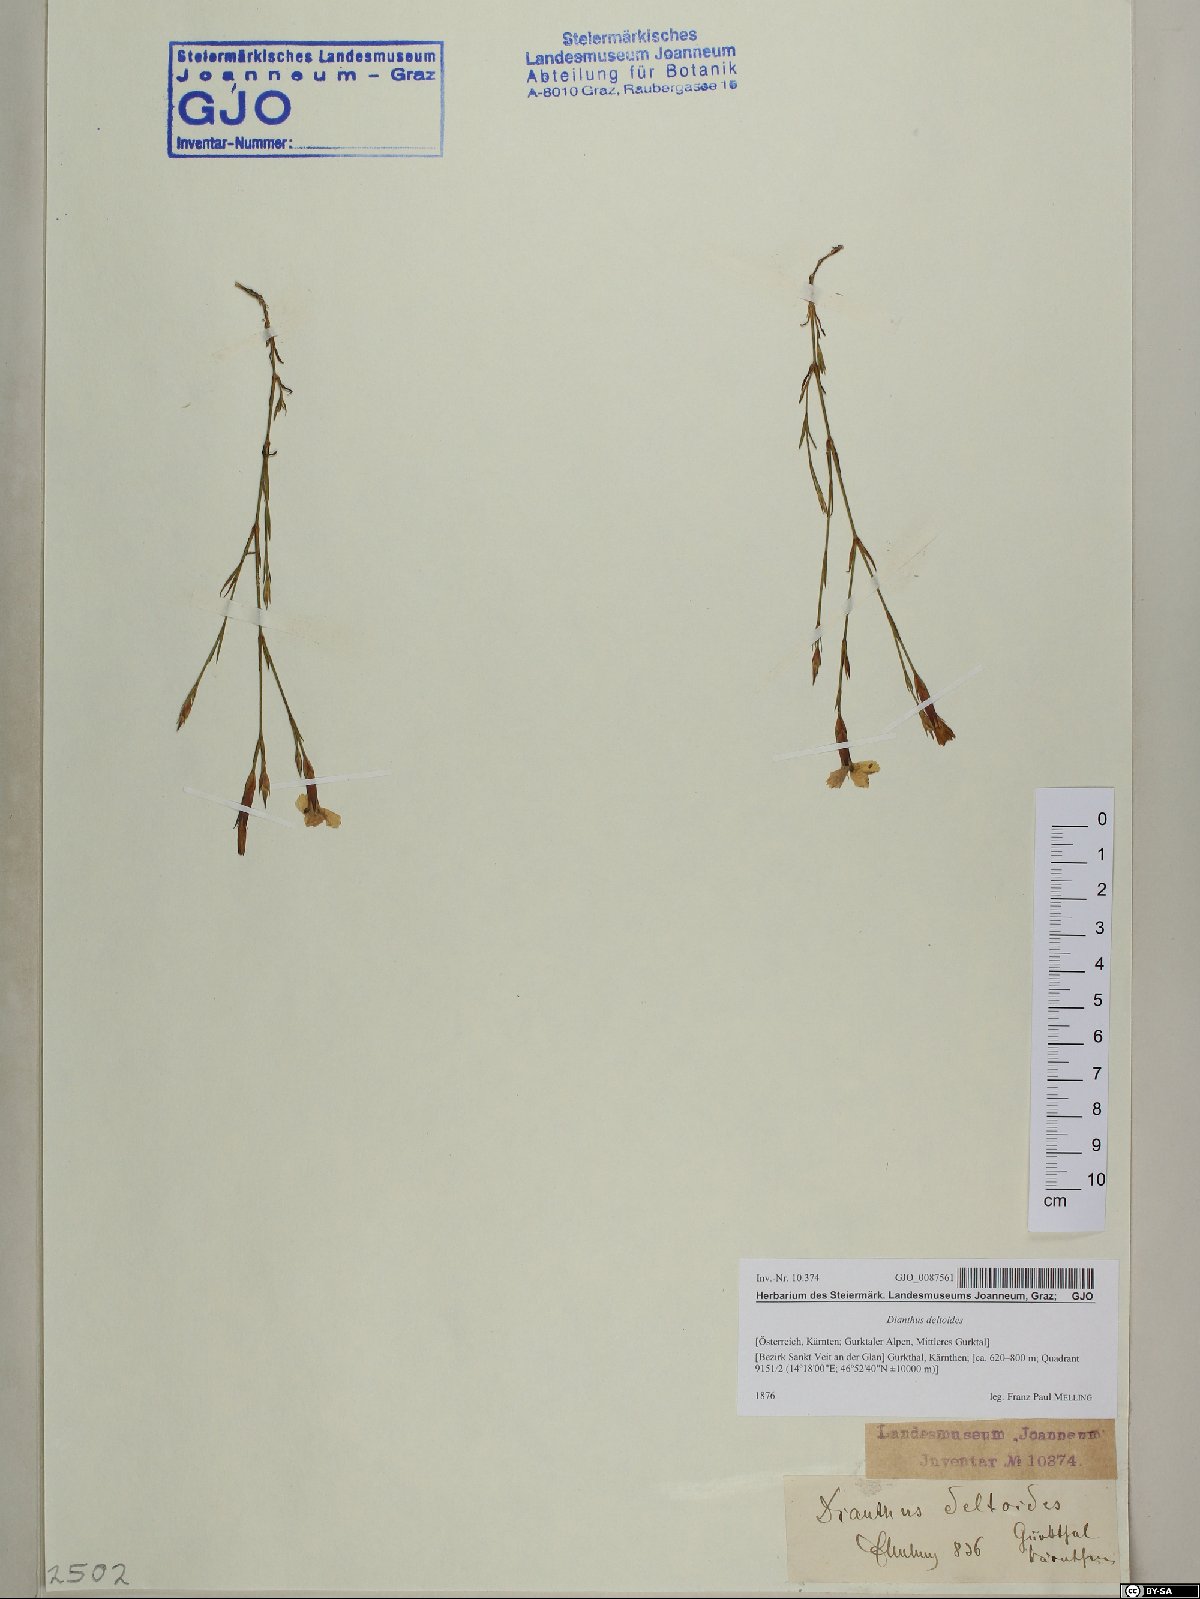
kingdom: Plantae
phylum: Tracheophyta
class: Magnoliopsida
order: Caryophyllales
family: Caryophyllaceae
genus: Dianthus
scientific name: Dianthus deltoides
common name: Maiden pink
